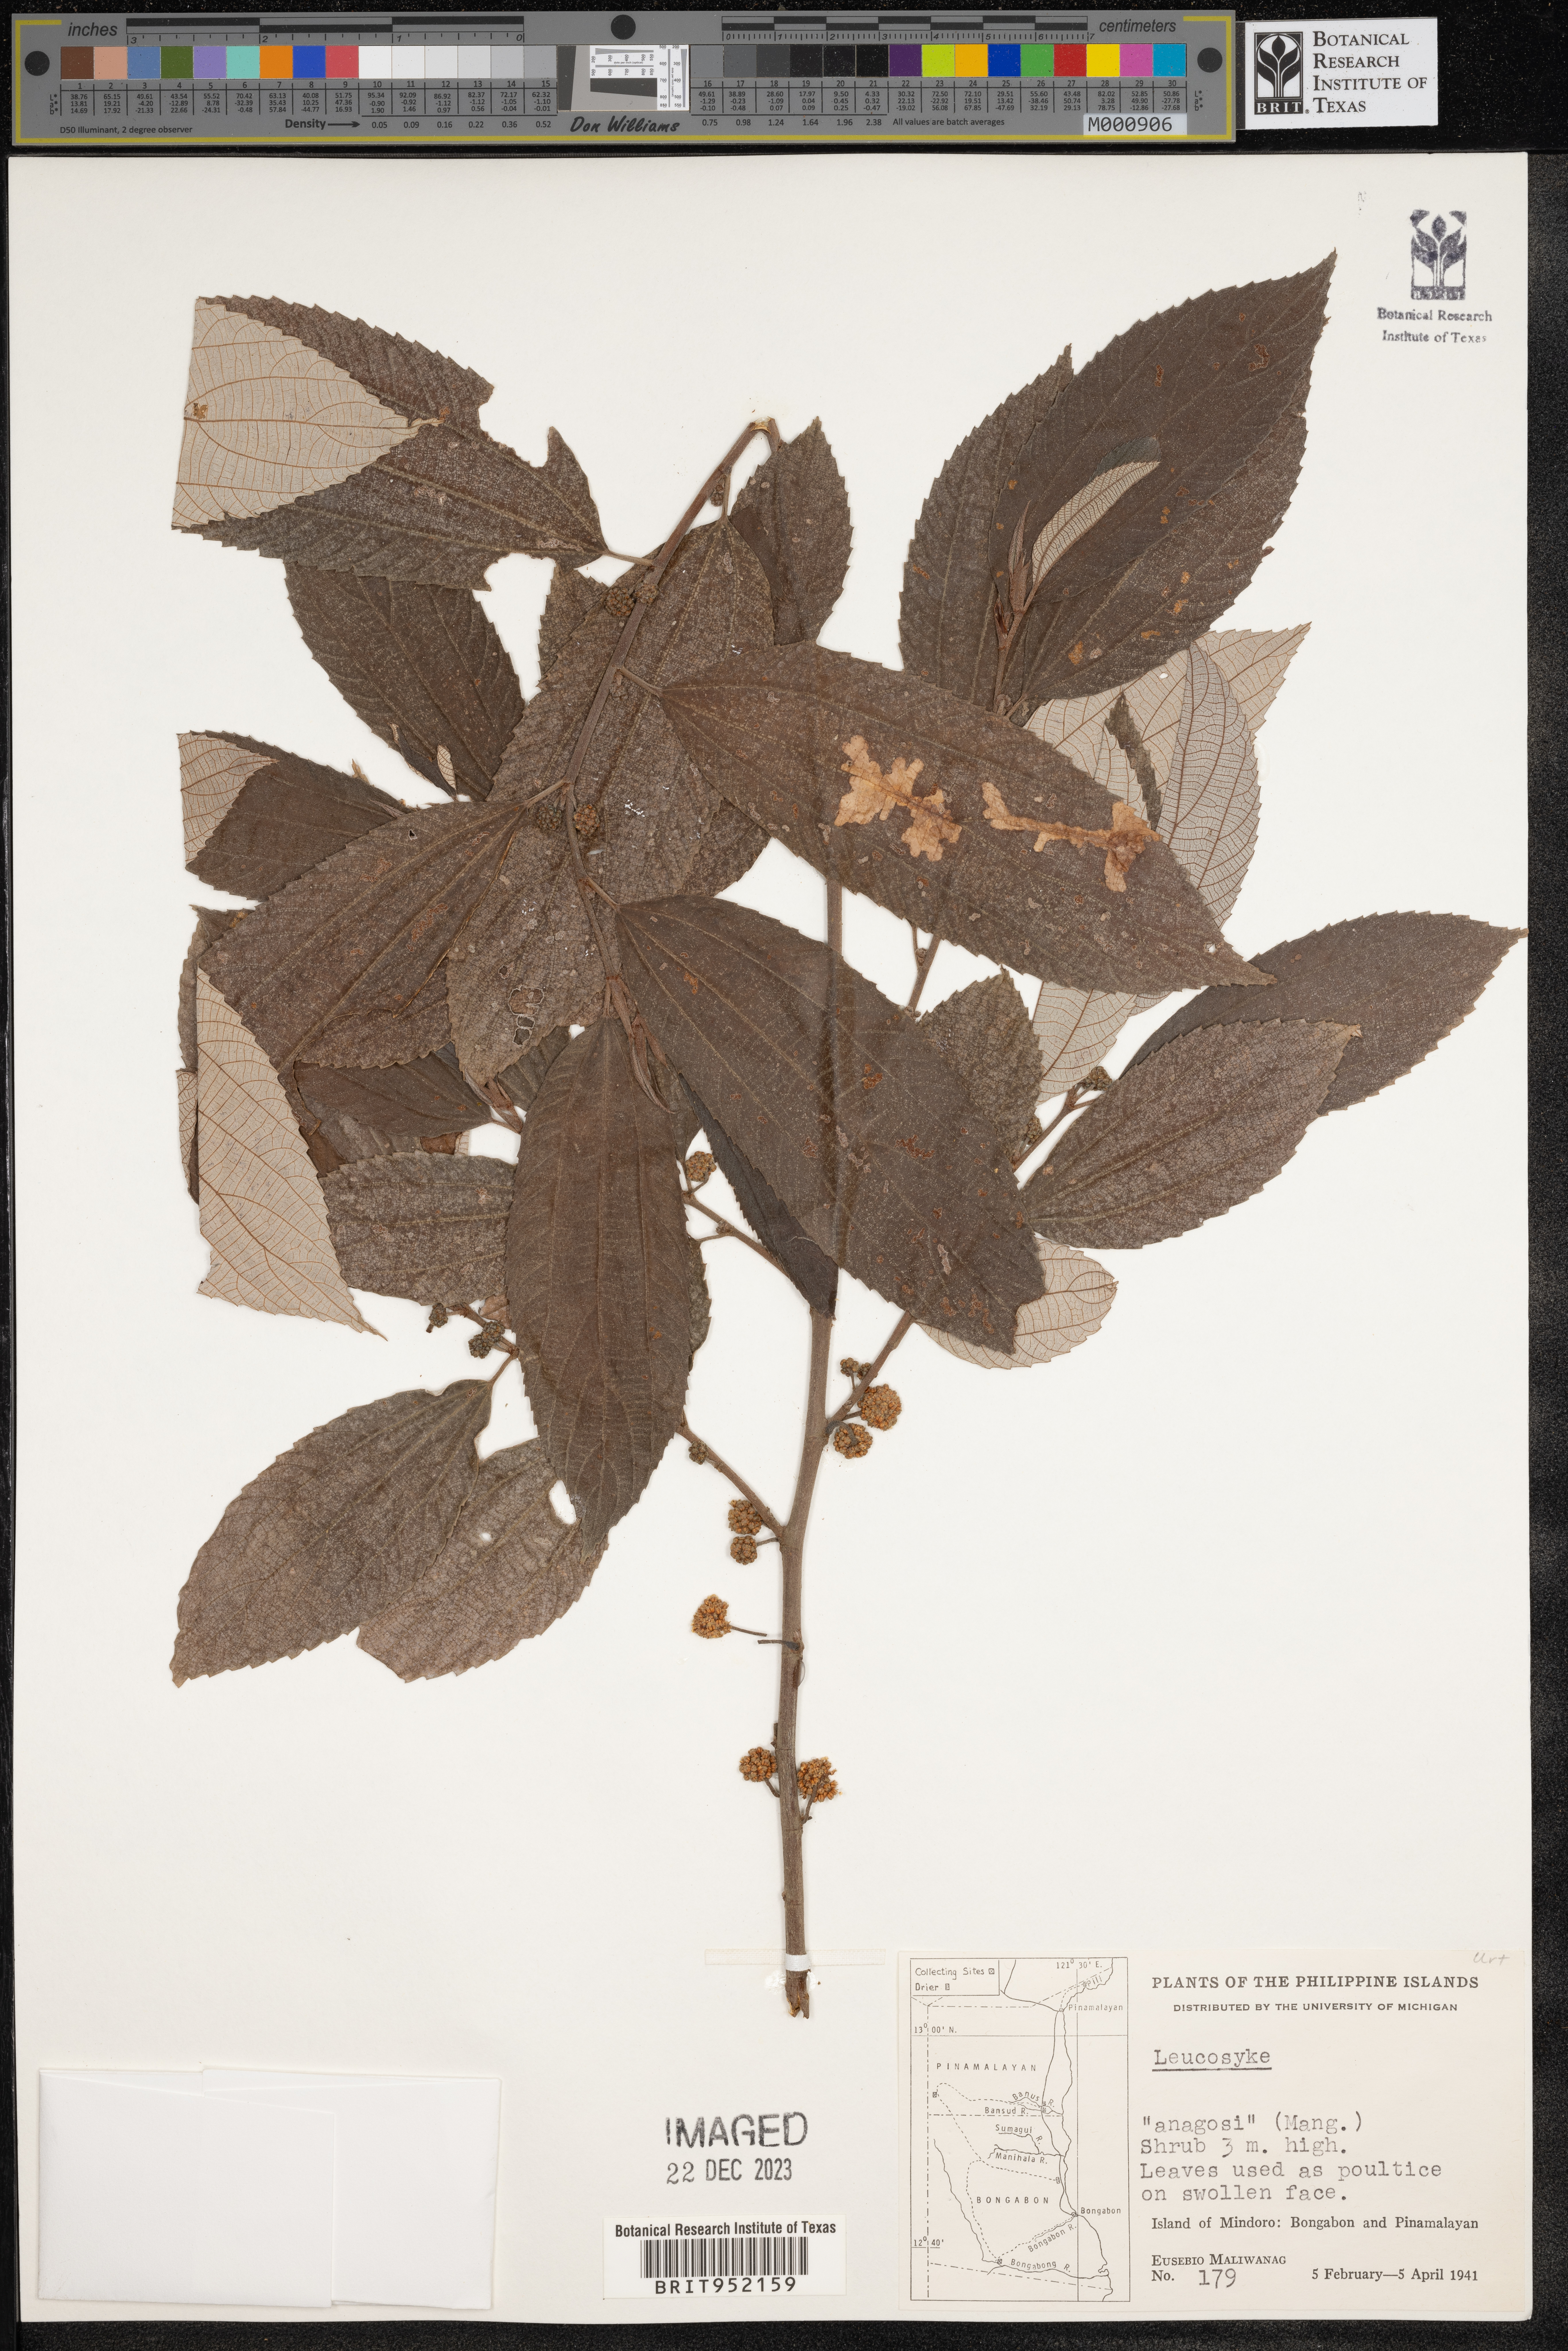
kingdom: Plantae
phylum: Tracheophyta
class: Magnoliopsida
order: Rosales
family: Urticaceae
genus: Leucosyke
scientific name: Leucosyke
